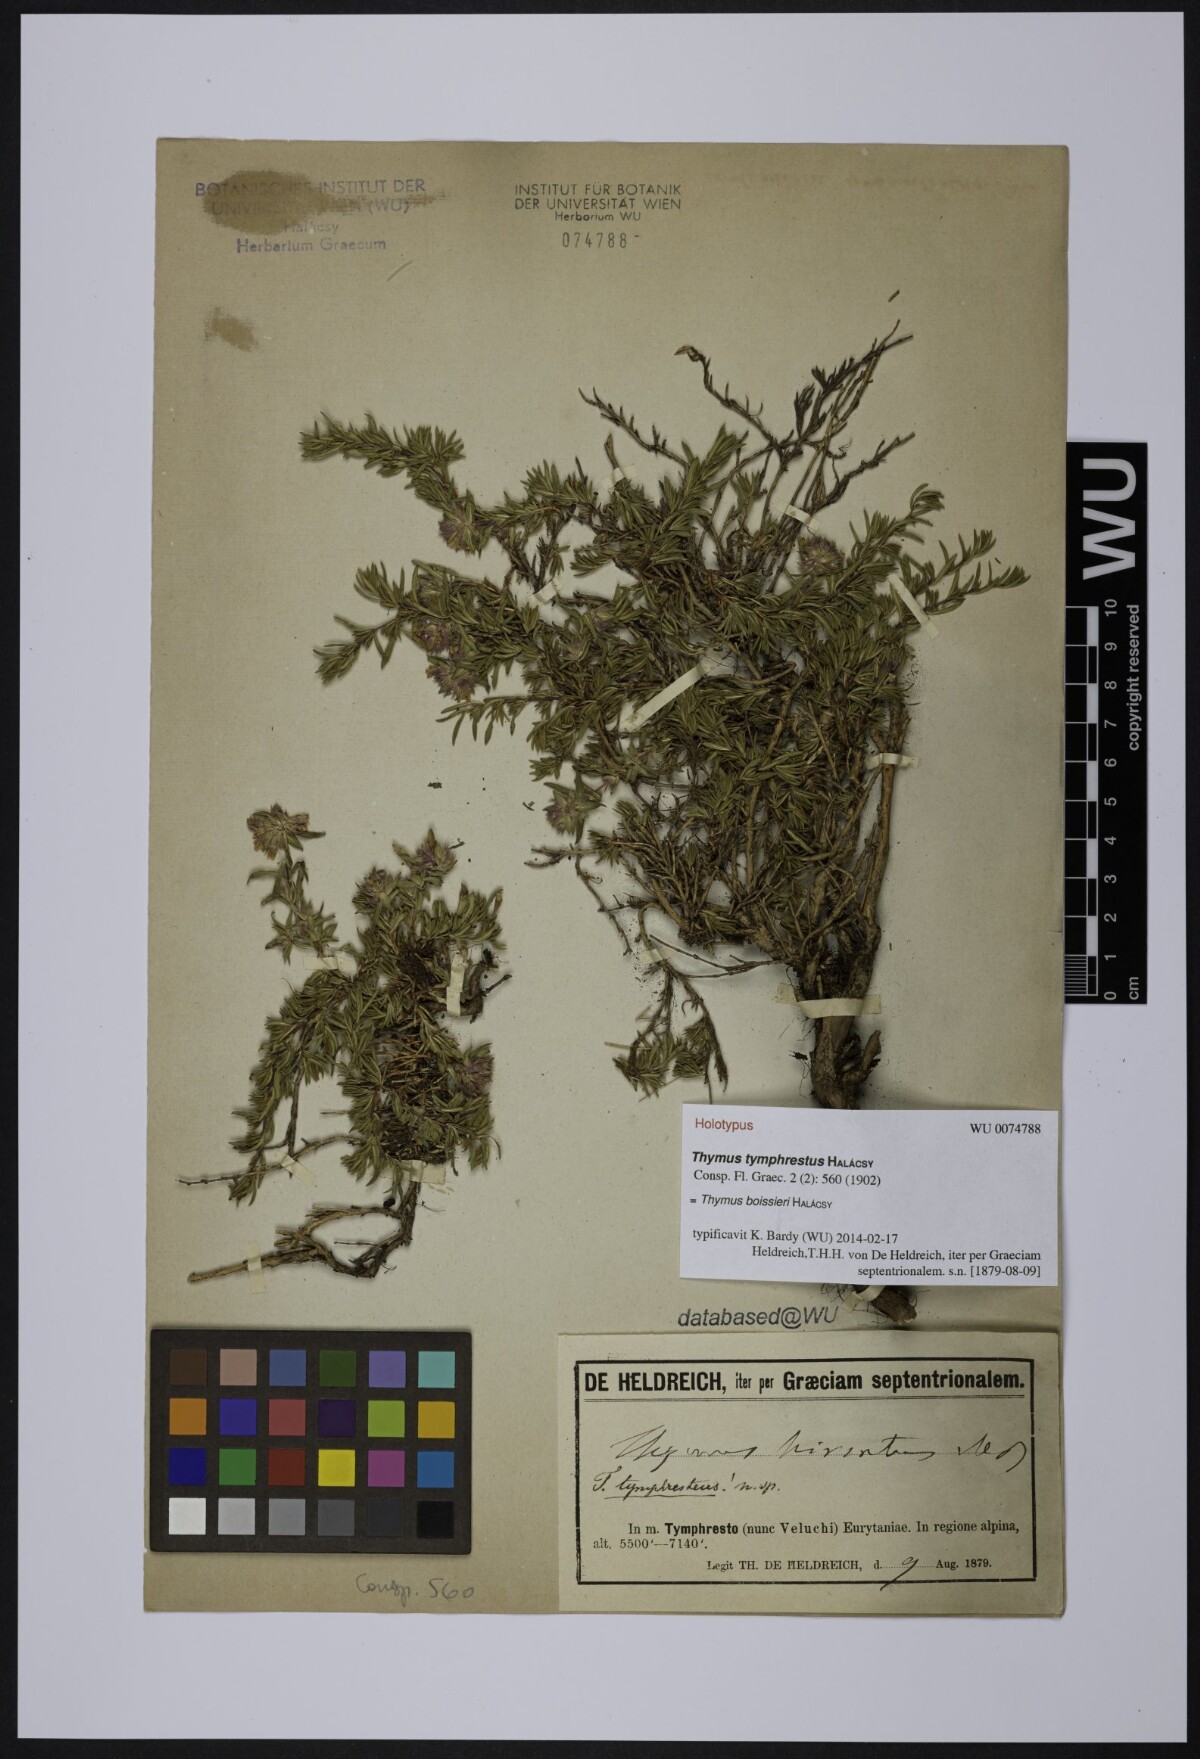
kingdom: Plantae
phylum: Tracheophyta
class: Magnoliopsida
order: Lamiales
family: Lamiaceae
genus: Thymus
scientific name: Thymus boissieri
